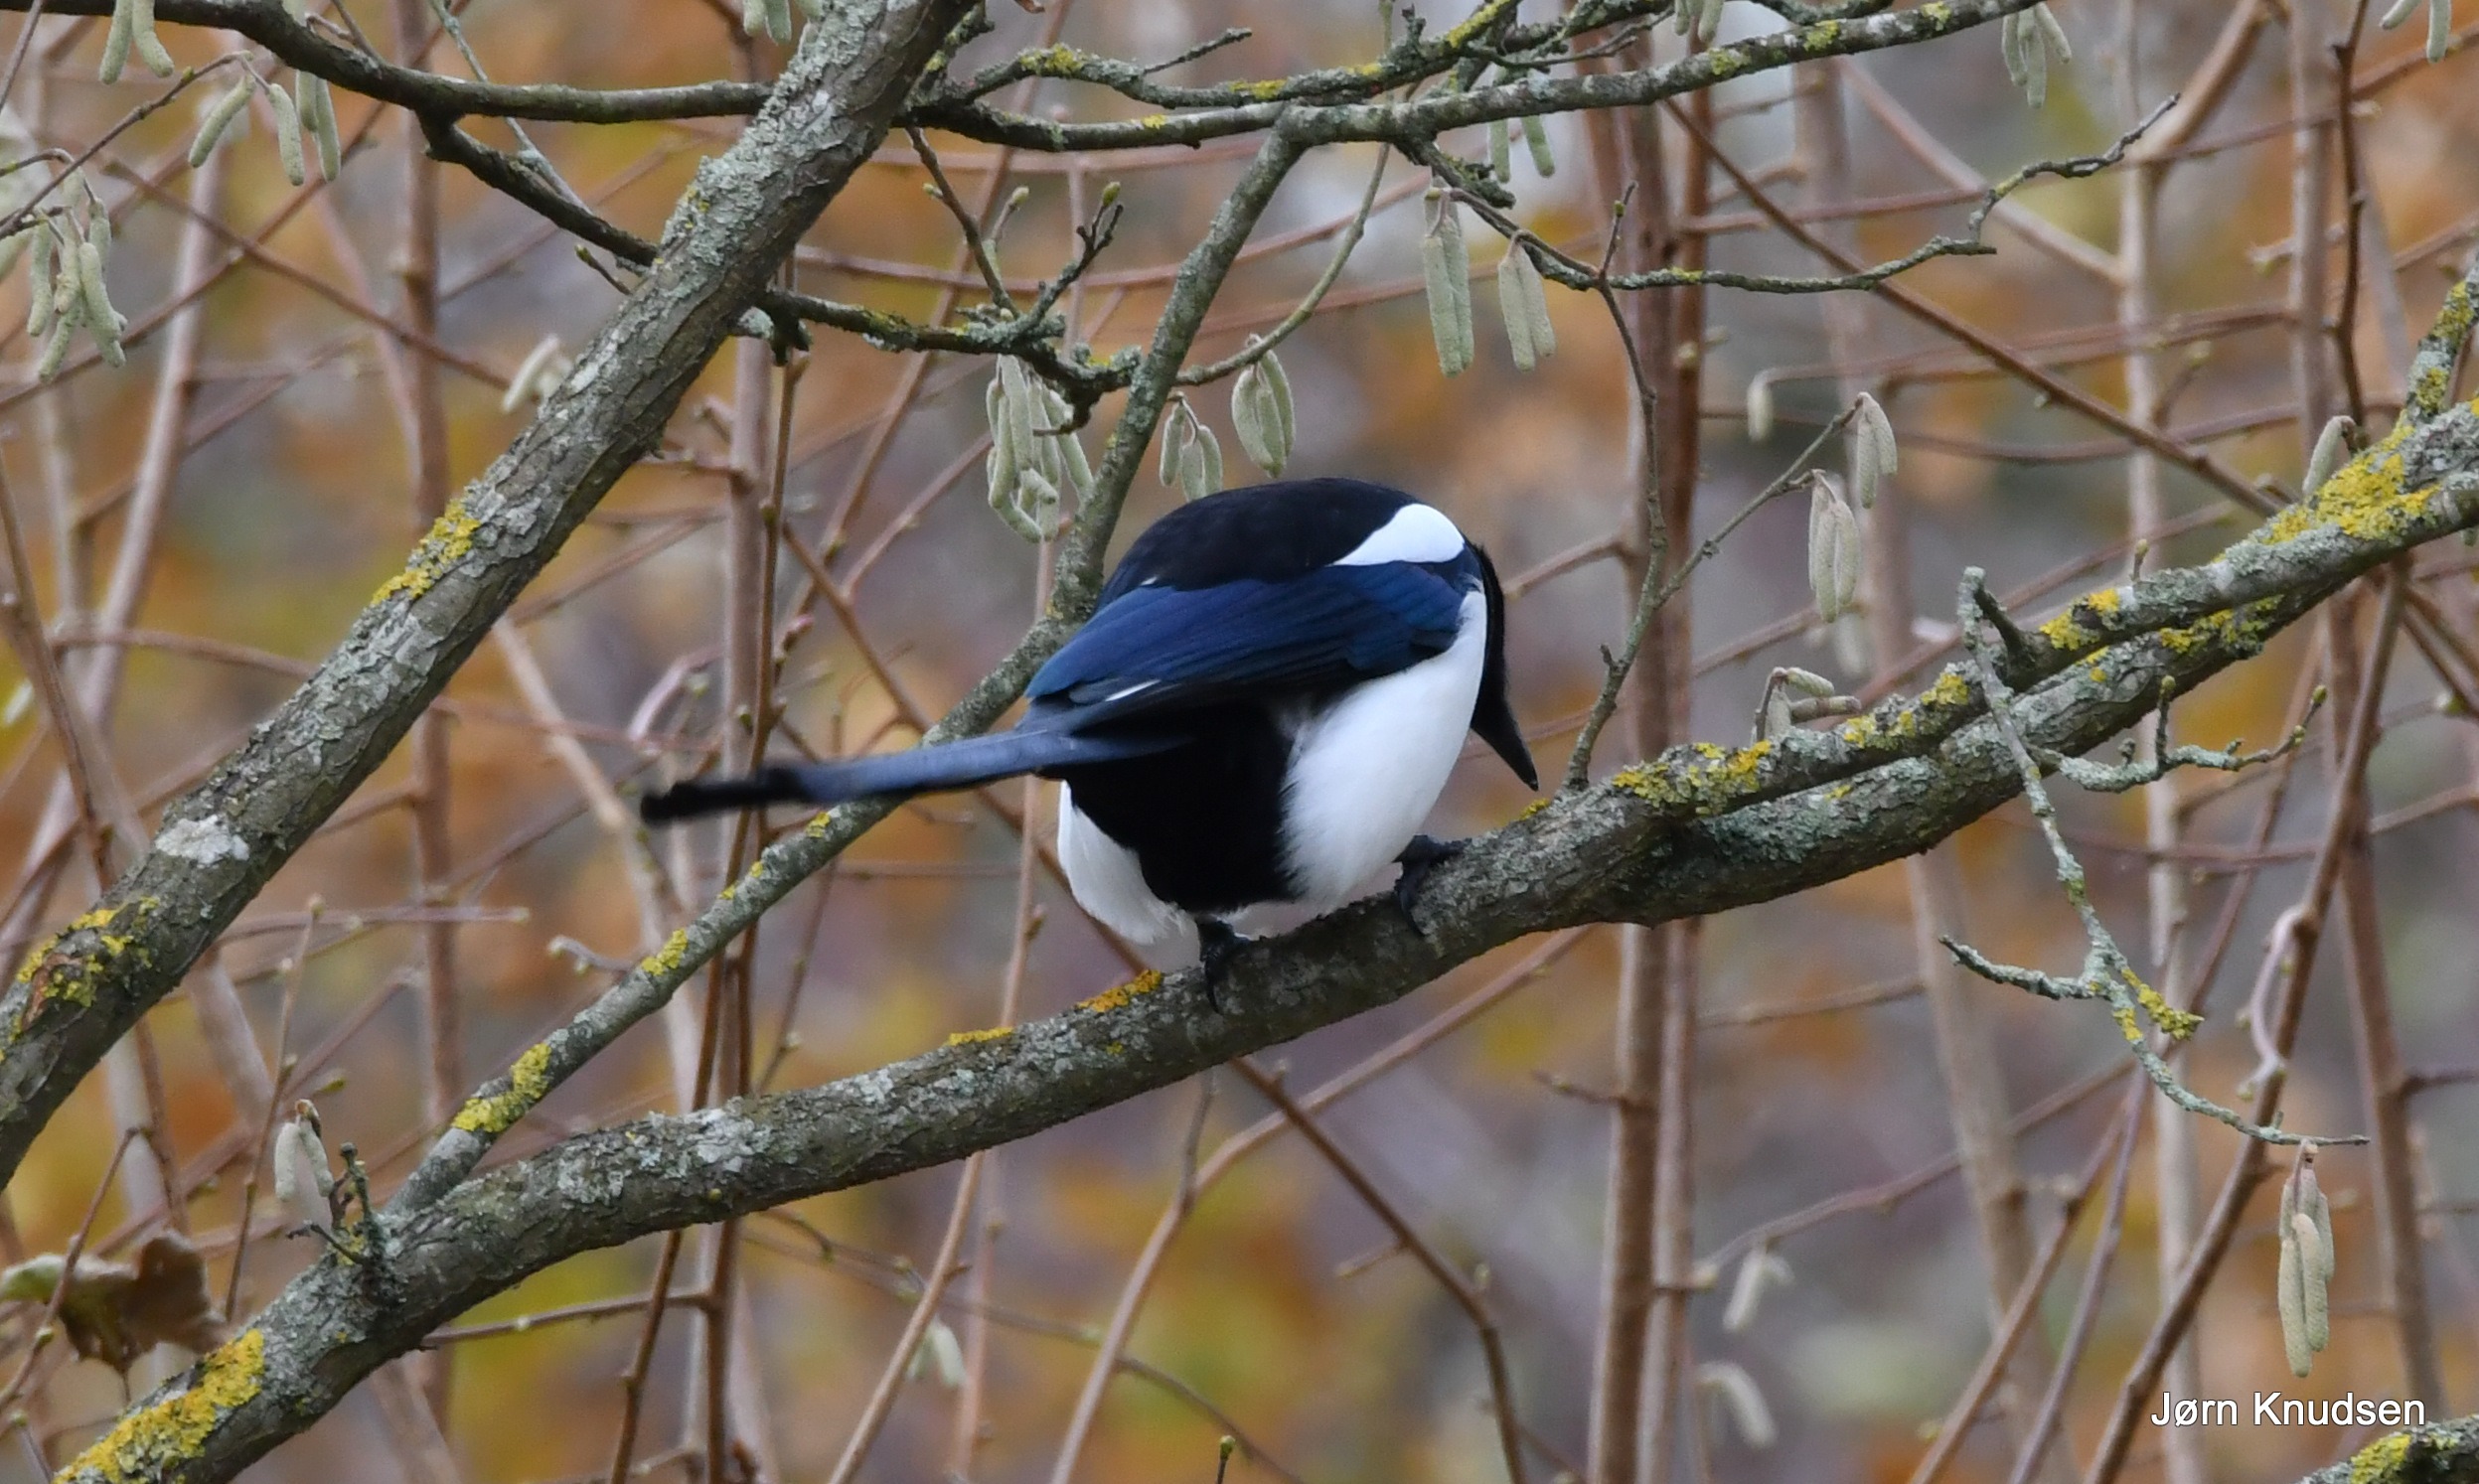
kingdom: Animalia
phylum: Chordata
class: Aves
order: Passeriformes
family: Corvidae
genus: Pica
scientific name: Pica pica
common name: Husskade
